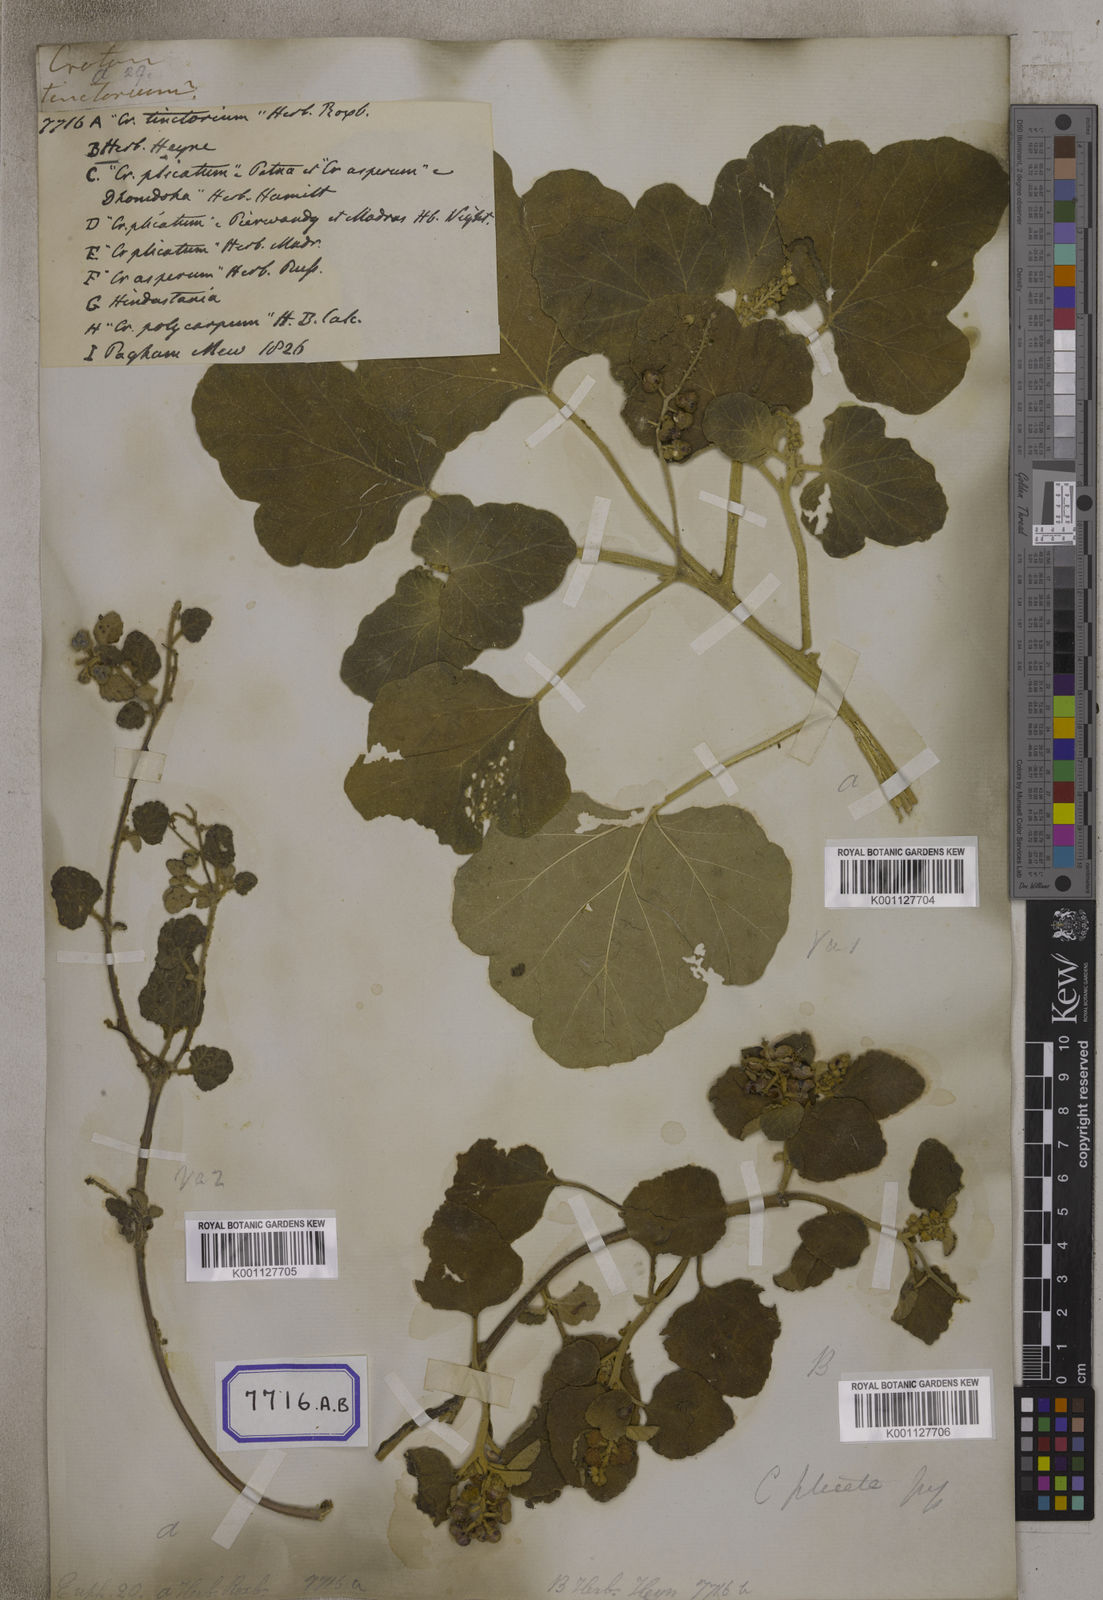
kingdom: Plantae
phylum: Tracheophyta
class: Magnoliopsida
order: Malpighiales
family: Euphorbiaceae
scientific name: Euphorbiaceae
